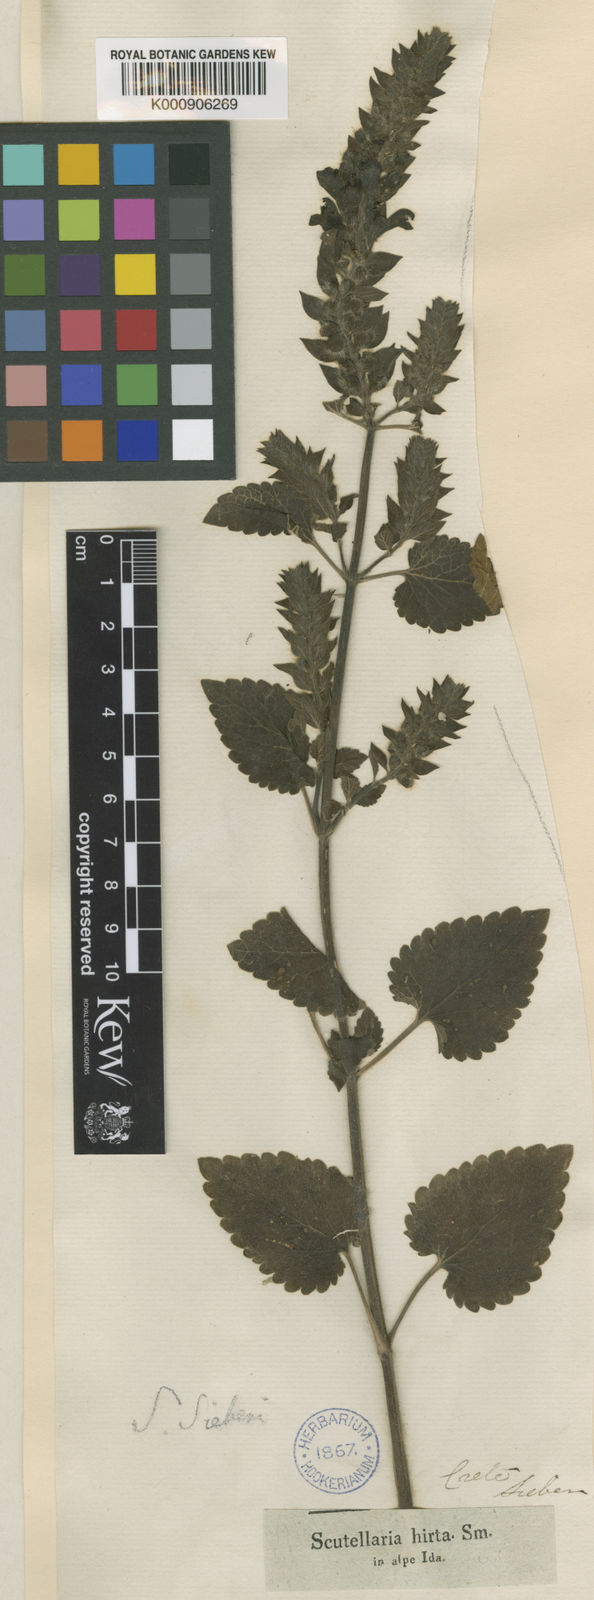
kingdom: Plantae
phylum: Tracheophyta
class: Magnoliopsida
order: Lamiales
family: Lamiaceae
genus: Scutellaria
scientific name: Scutellaria hirta
